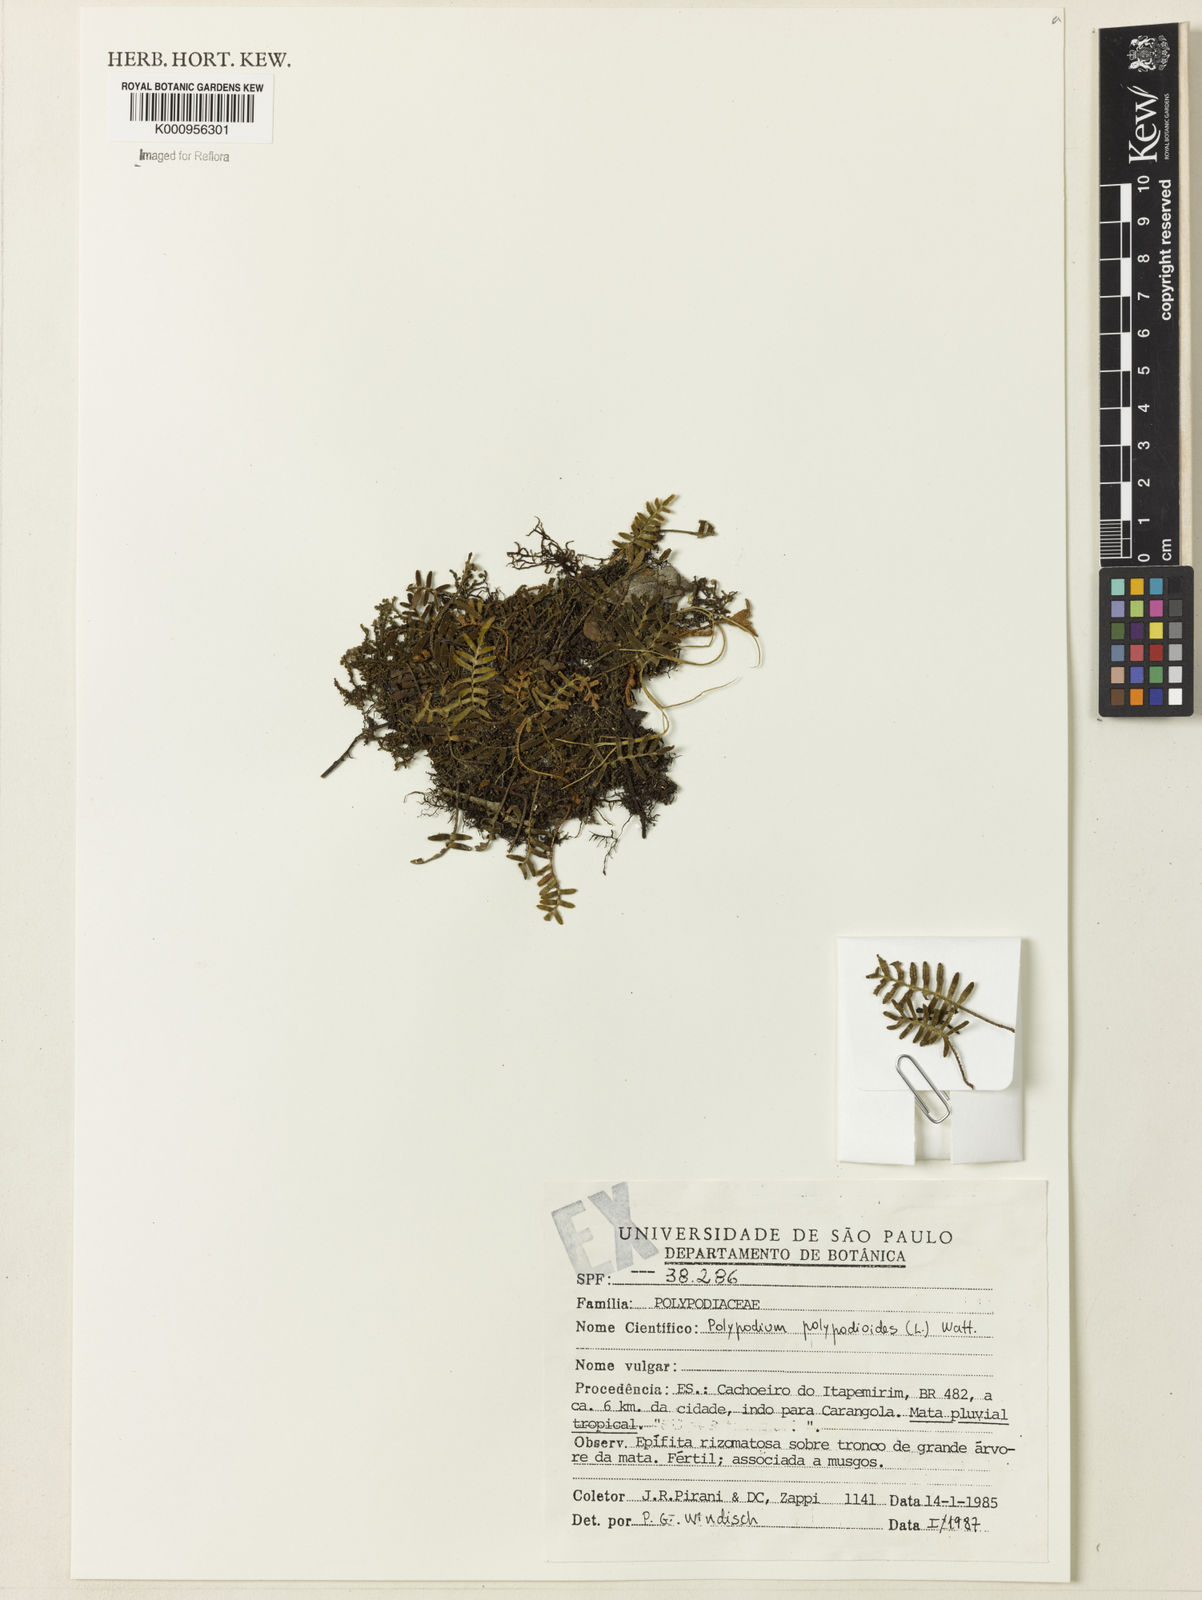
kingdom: Plantae
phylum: Tracheophyta
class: Polypodiopsida
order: Polypodiales
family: Polypodiaceae
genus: Pleopeltis
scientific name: Pleopeltis polypodioides
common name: Resurrection fern
